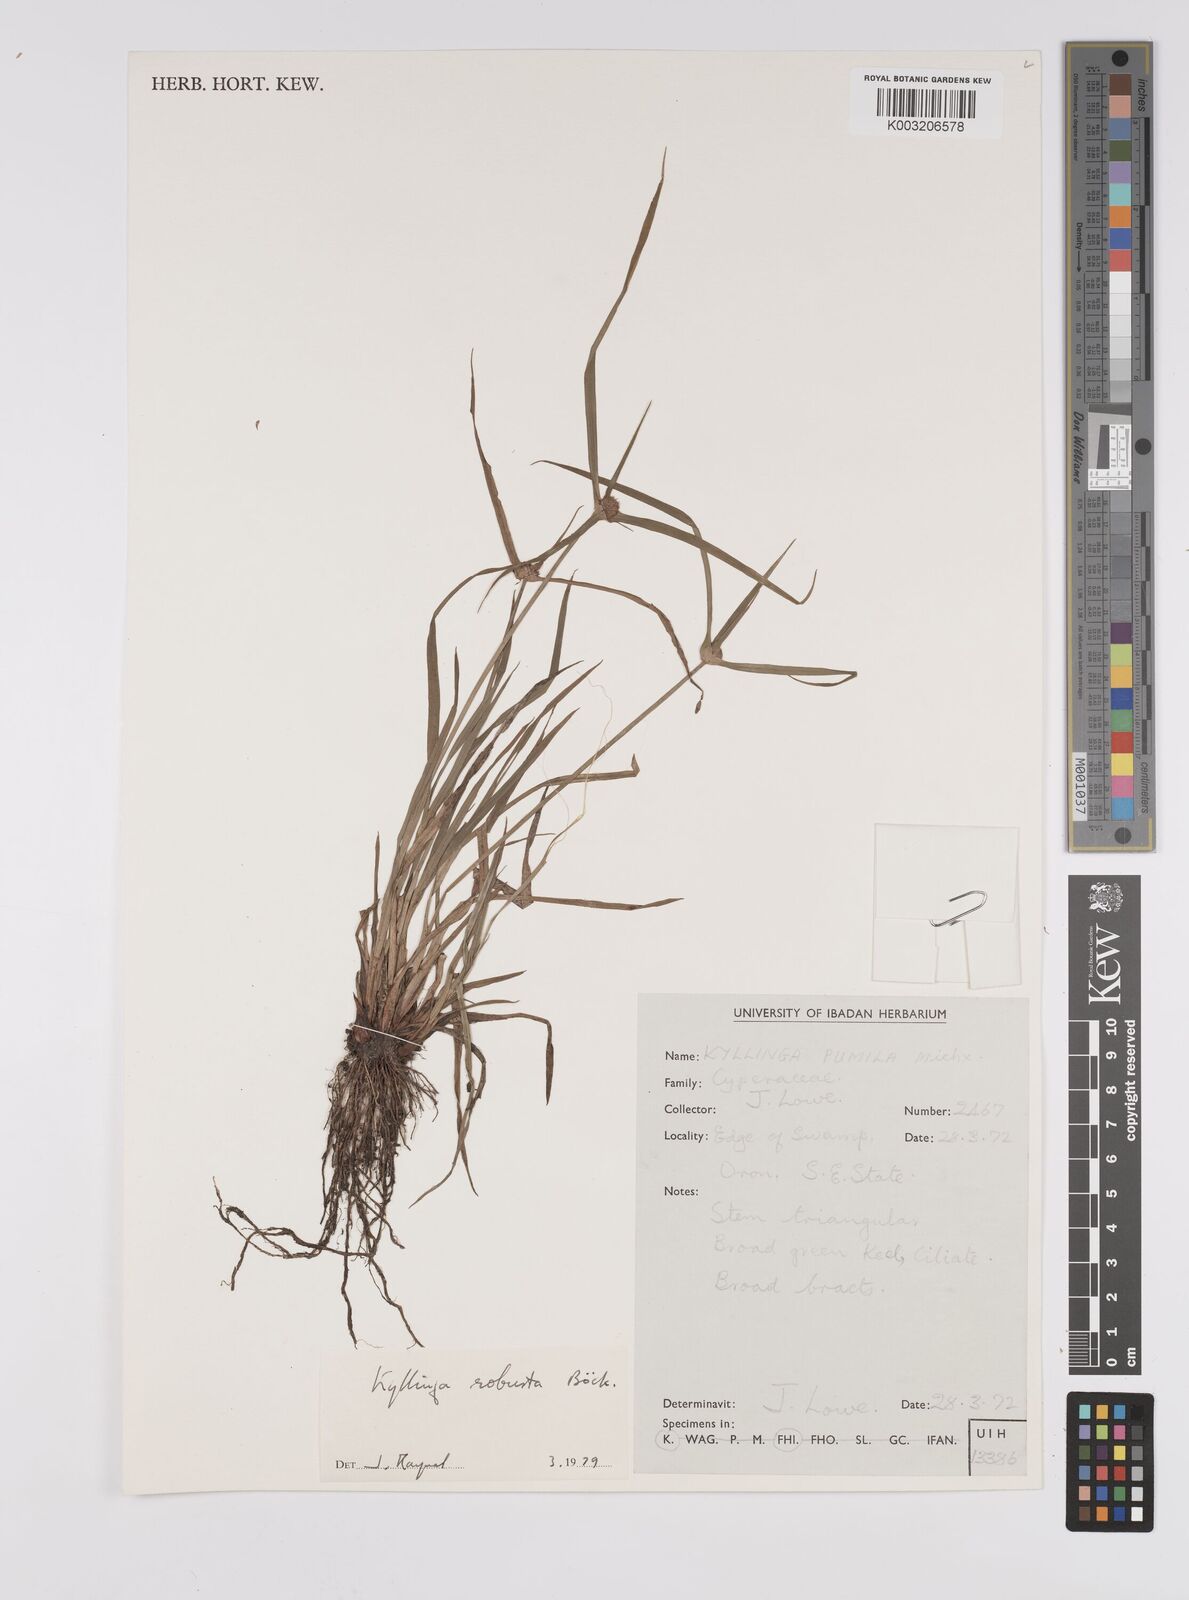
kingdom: Plantae
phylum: Tracheophyta
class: Liliopsida
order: Poales
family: Cyperaceae
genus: Cyperus
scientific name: Cyperus
